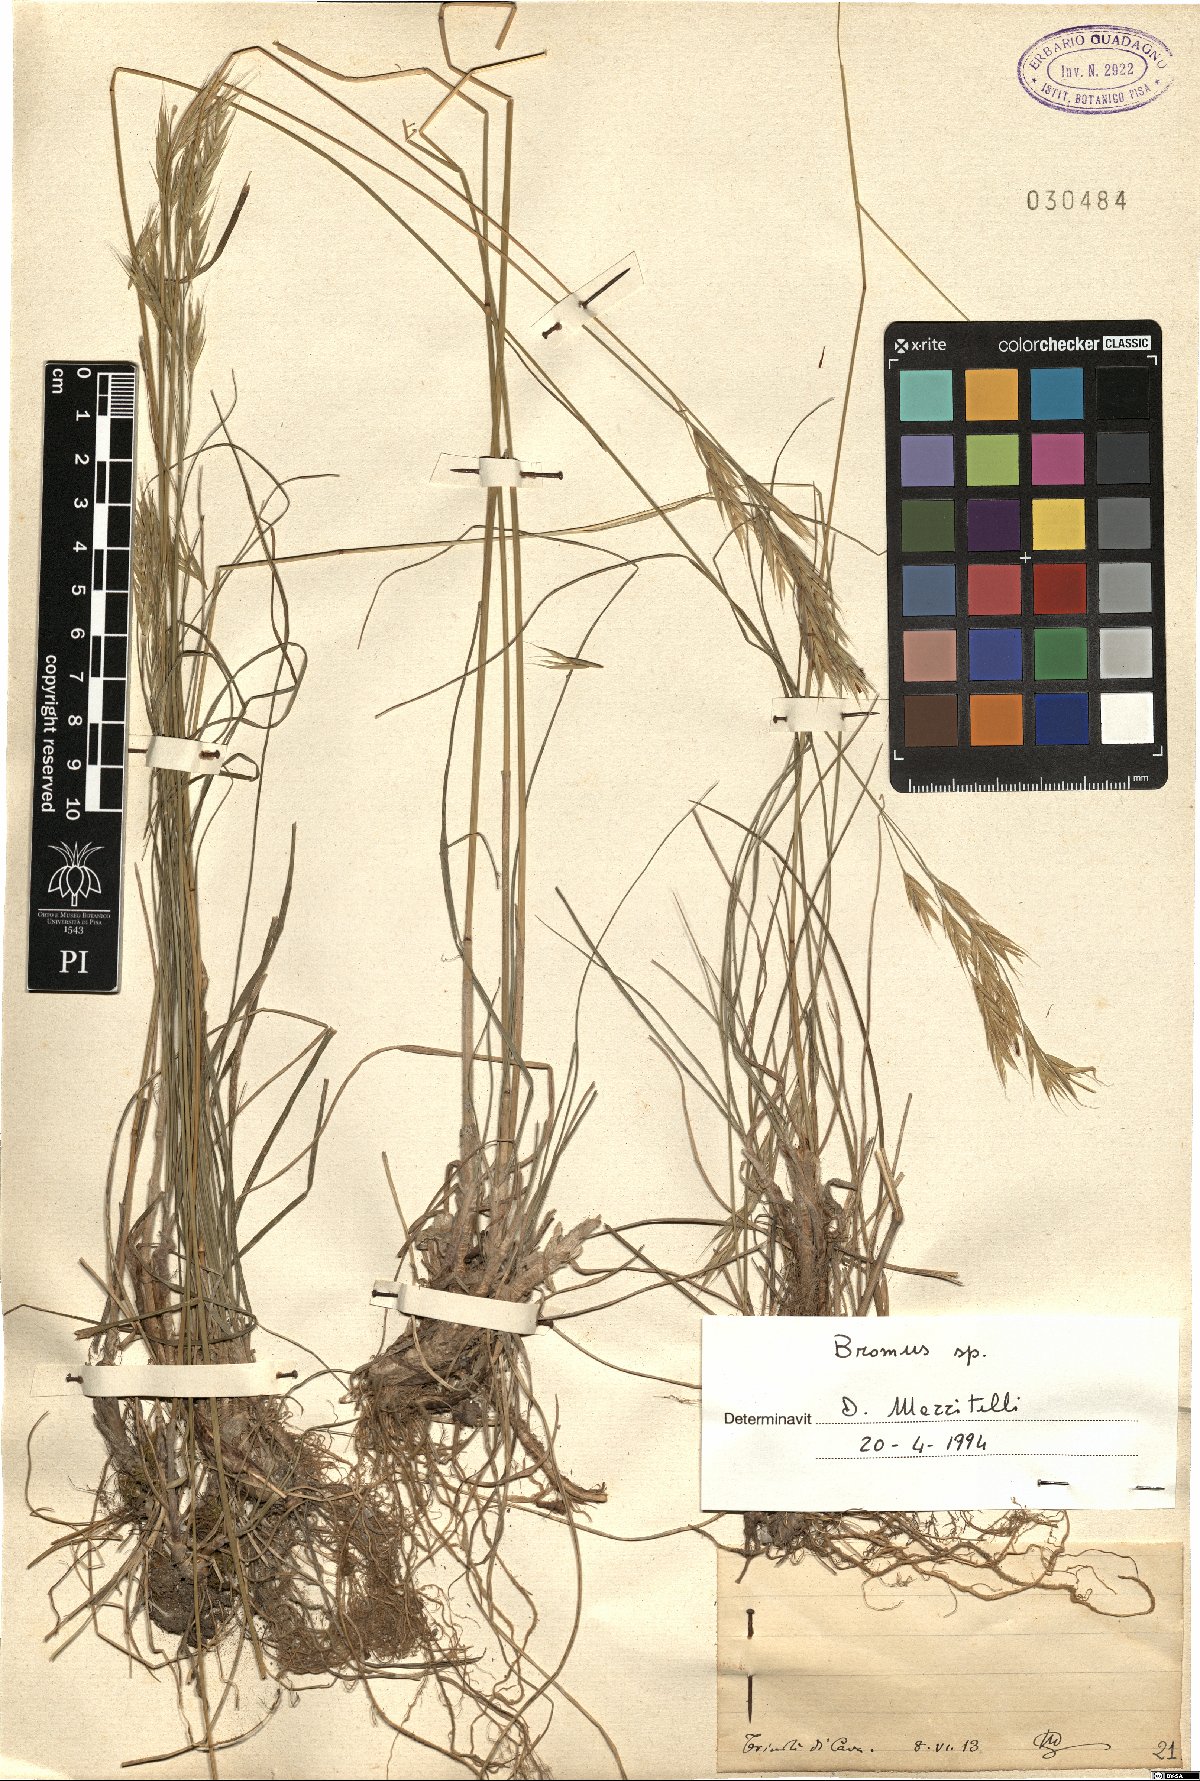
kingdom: Plantae
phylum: Tracheophyta
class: Liliopsida
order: Poales
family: Poaceae
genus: Bromus
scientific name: Bromus
